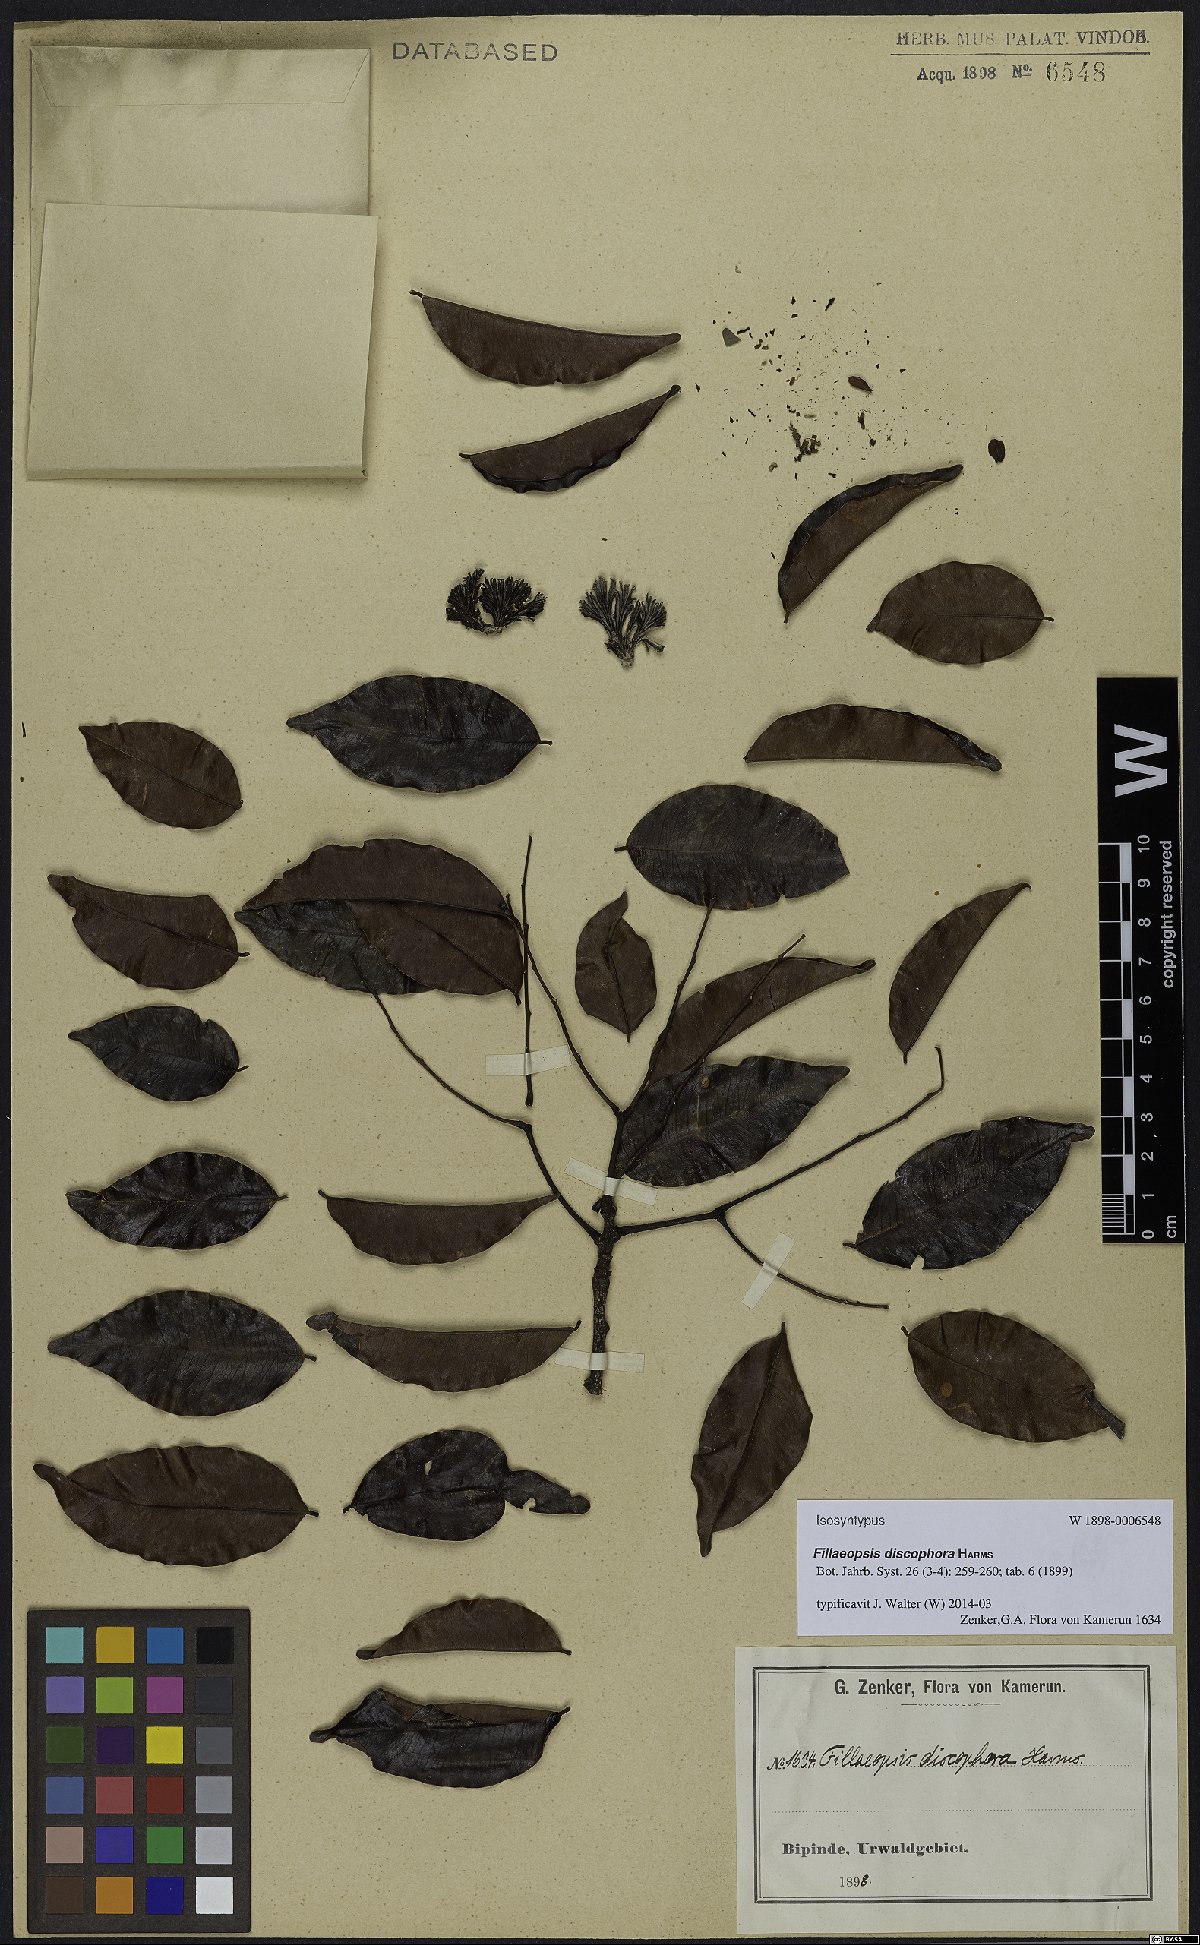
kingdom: Plantae
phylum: Tracheophyta
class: Magnoliopsida
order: Fabales
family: Fabaceae
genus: Fillaeopsis
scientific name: Fillaeopsis discophora
